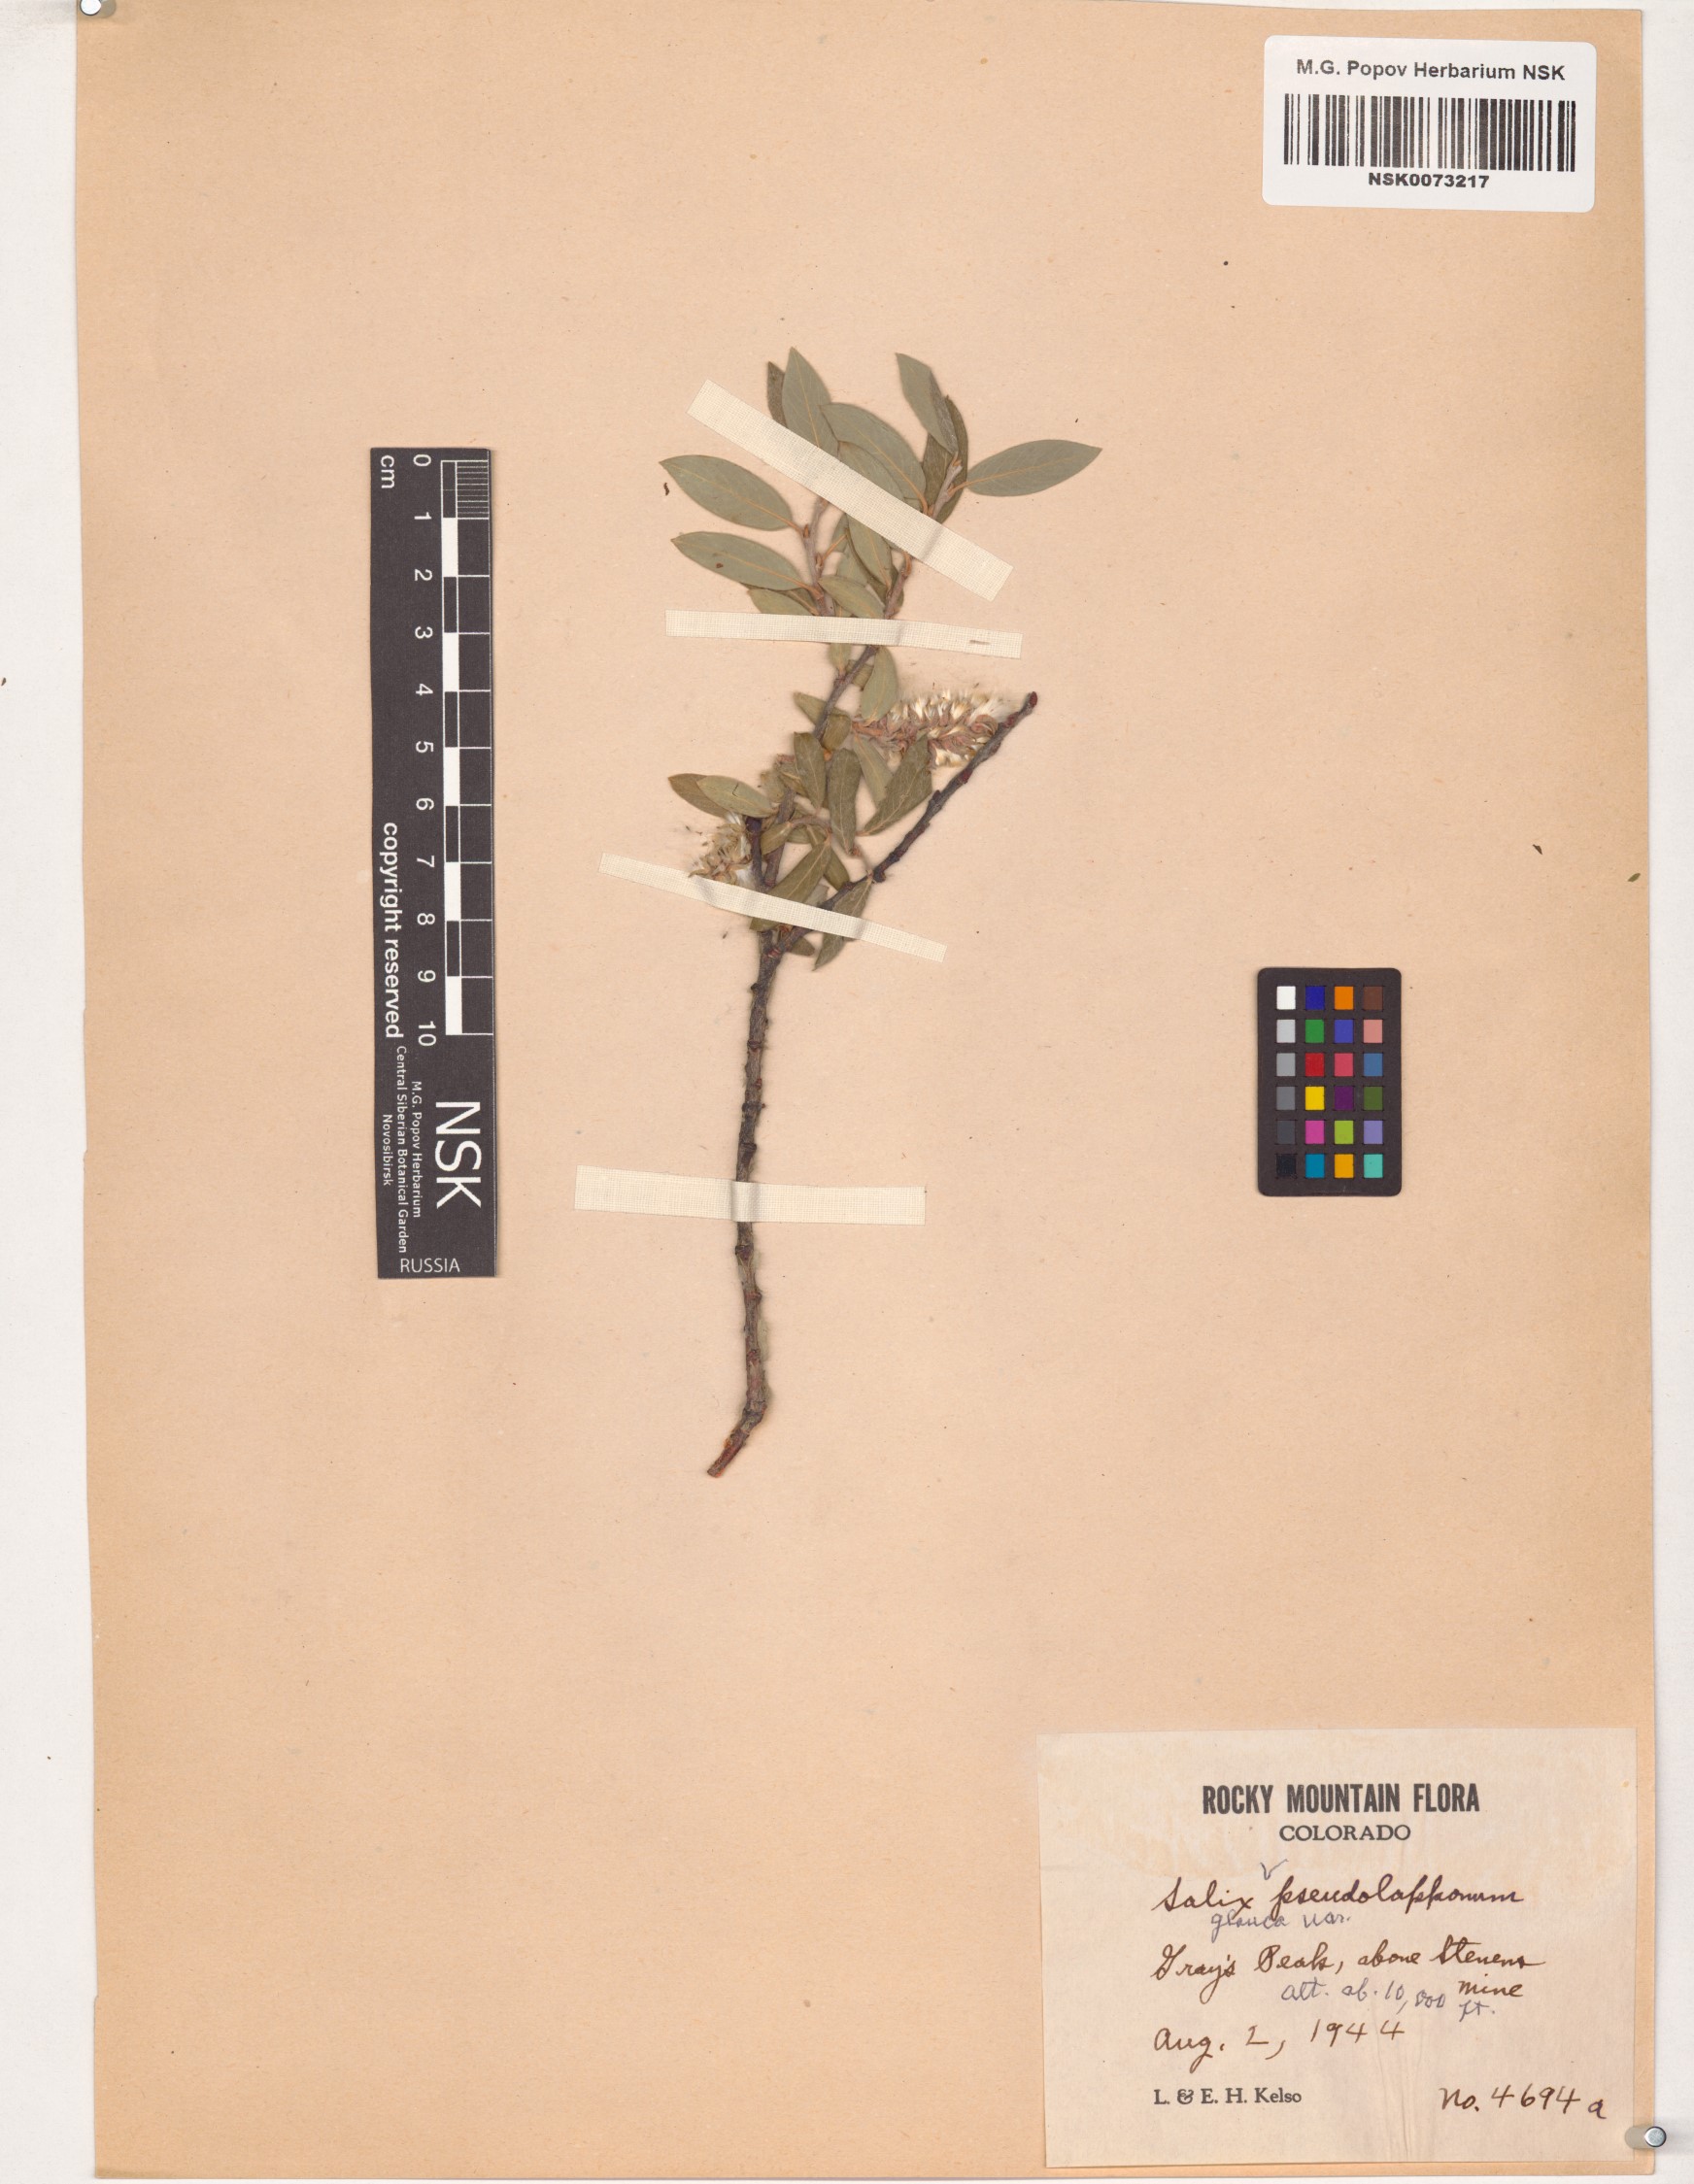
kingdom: Plantae
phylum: Tracheophyta
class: Magnoliopsida
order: Malpighiales
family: Salicaceae
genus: Salix
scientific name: Salix glauca
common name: Glaucous willow
